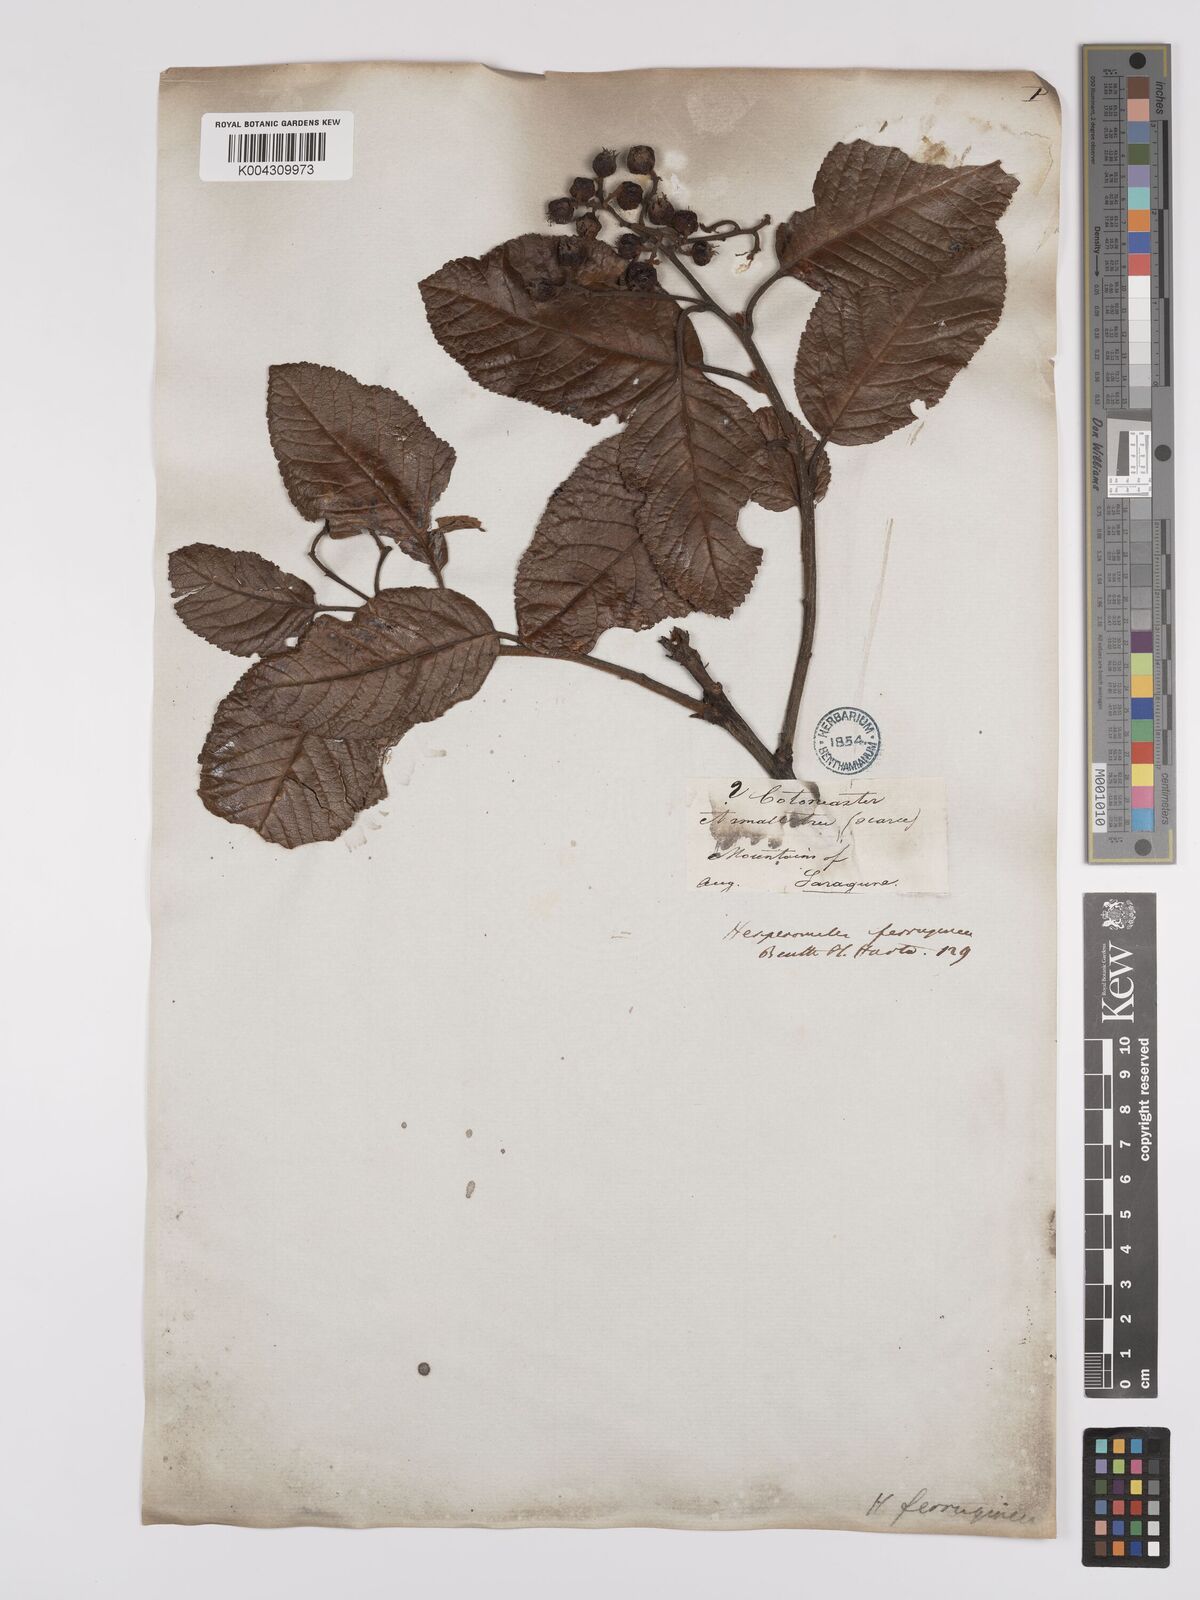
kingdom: Plantae
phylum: Tracheophyta
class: Magnoliopsida
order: Rosales
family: Rosaceae
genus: Hesperomeles
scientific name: Hesperomeles ferruginea
